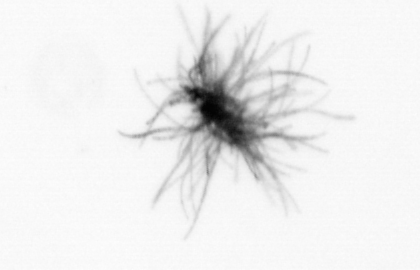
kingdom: Bacteria
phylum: Cyanobacteria
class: Cyanobacteriia
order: Cyanobacteriales
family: Microcoleaceae
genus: Trichodesmium
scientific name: Trichodesmium
